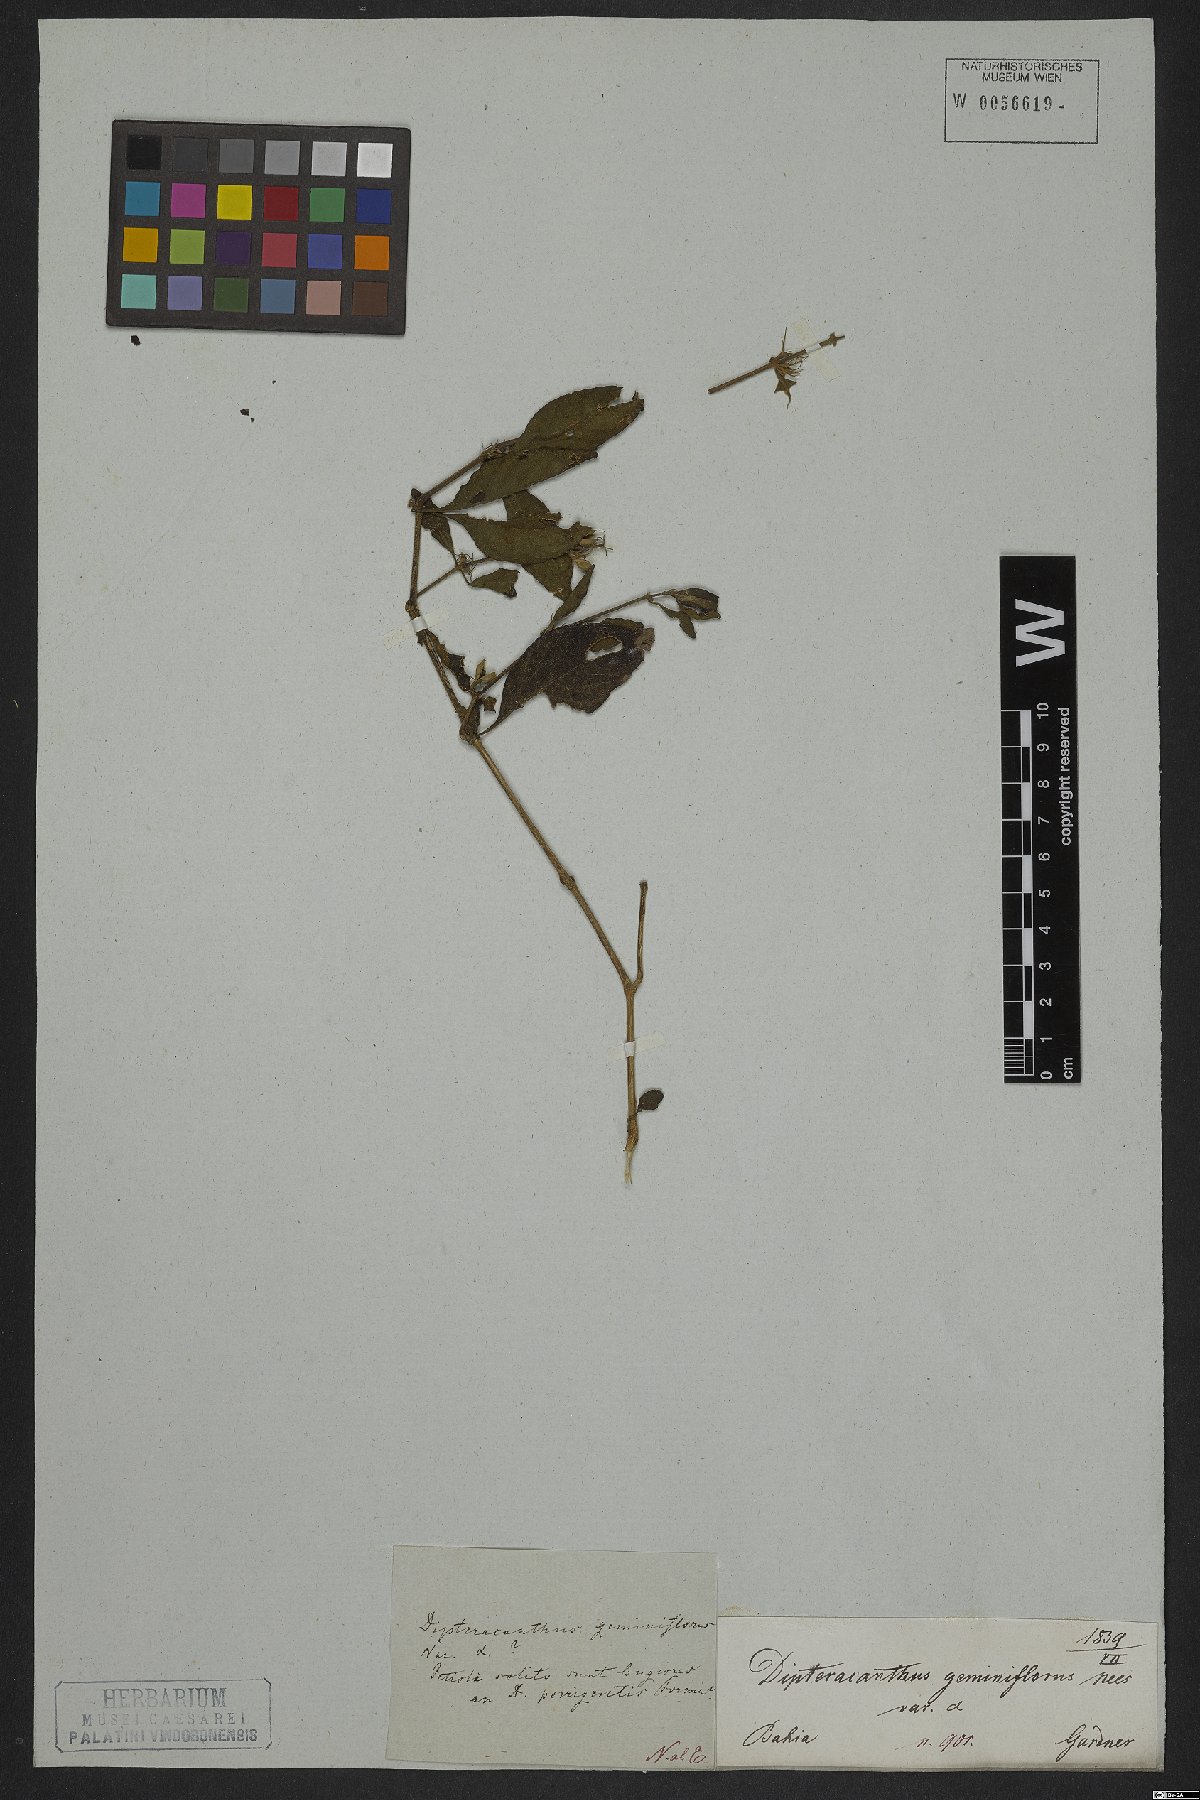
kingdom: Plantae
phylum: Tracheophyta
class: Magnoliopsida
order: Lamiales
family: Acanthaceae
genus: Ruellia
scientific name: Ruellia geminiflora
